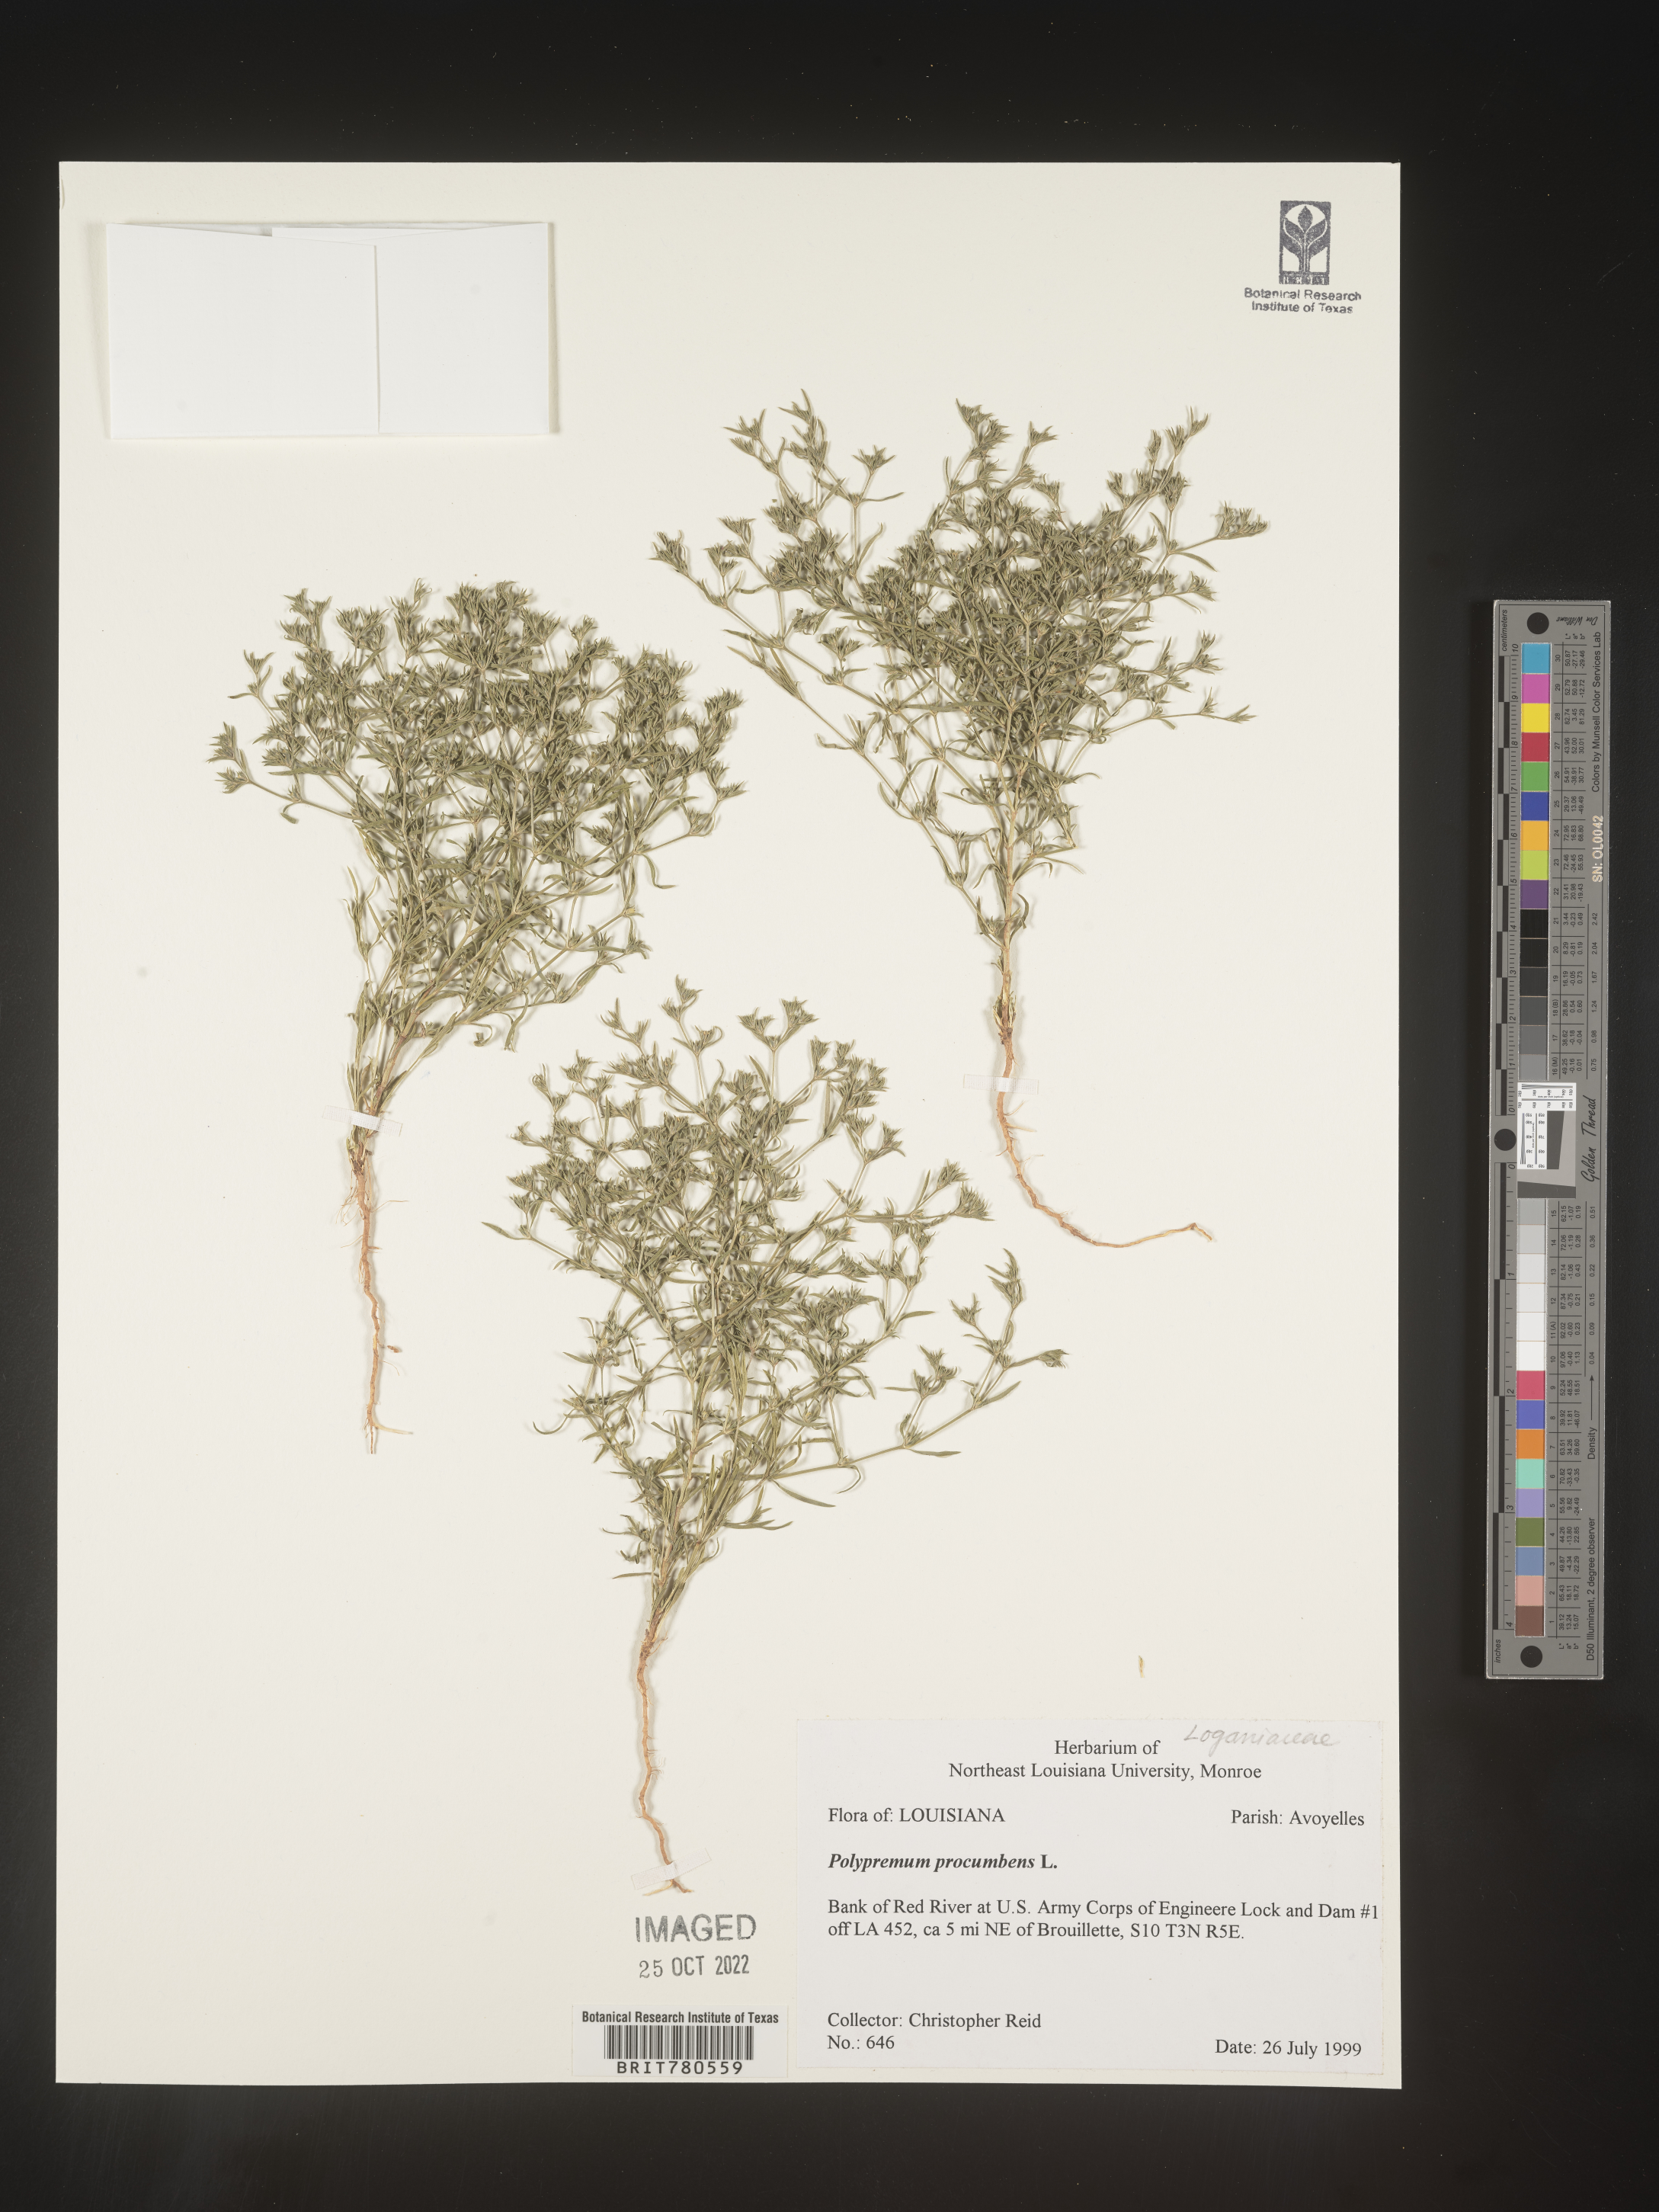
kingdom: Plantae
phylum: Tracheophyta
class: Magnoliopsida
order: Lamiales
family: Tetrachondraceae
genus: Polypremum
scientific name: Polypremum procumbens
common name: Juniper-leaf
